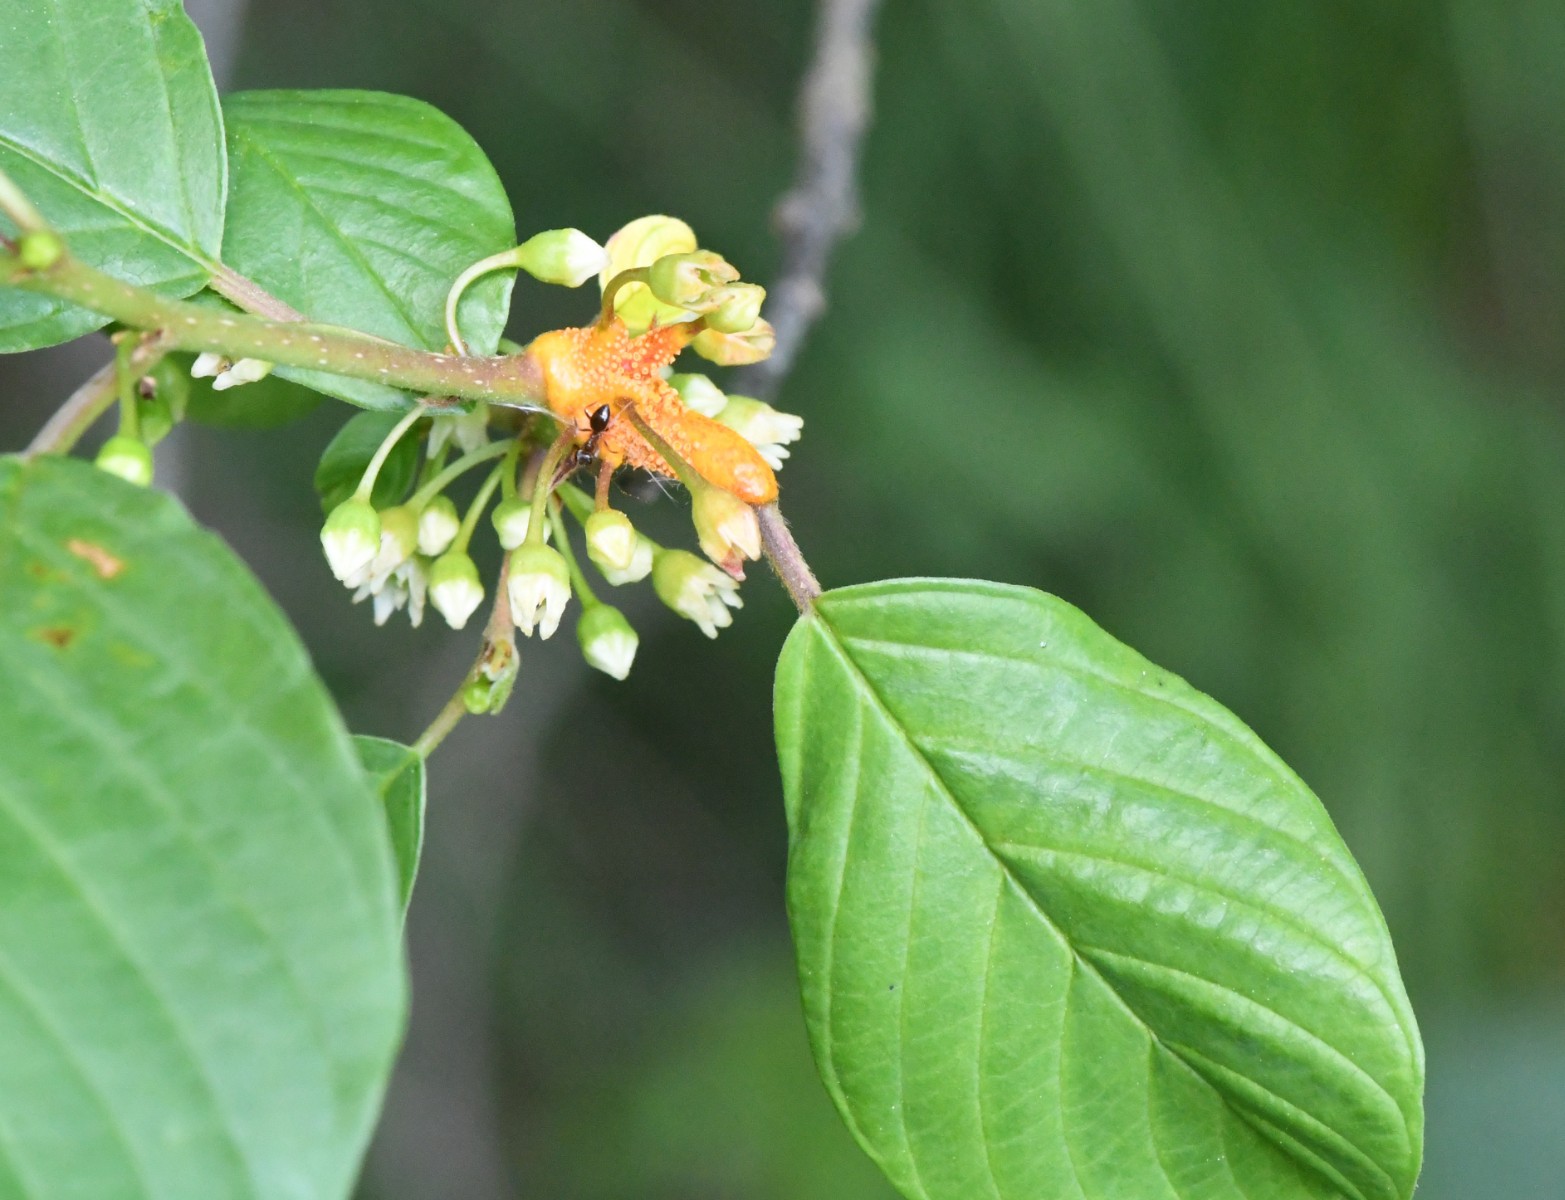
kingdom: Fungi
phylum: Basidiomycota
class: Pucciniomycetes
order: Pucciniales
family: Pucciniaceae
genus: Puccinia
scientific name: Puccinia coronata
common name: Crown rust
